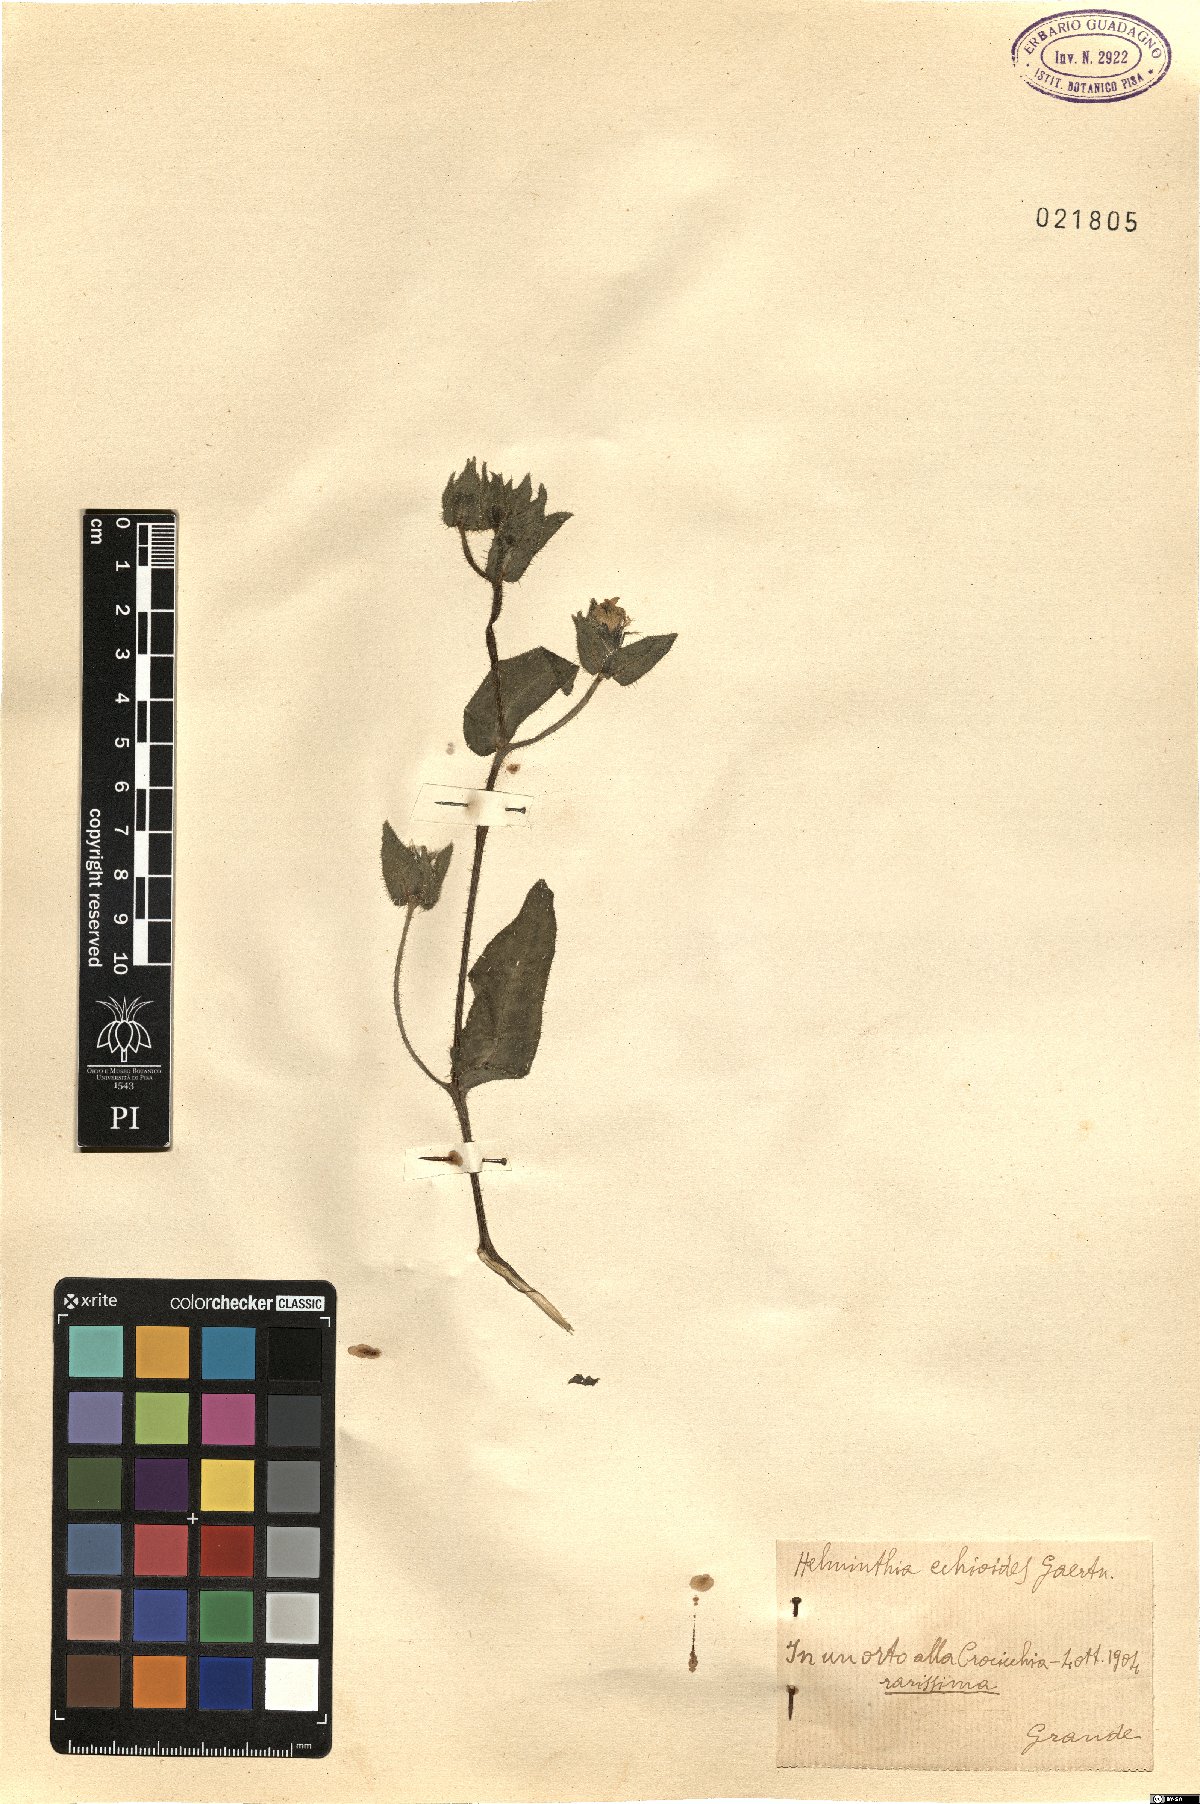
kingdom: Plantae
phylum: Tracheophyta
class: Magnoliopsida
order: Asterales
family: Asteraceae
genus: Helminthotheca
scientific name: Helminthotheca echioides
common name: Ox-tongue
